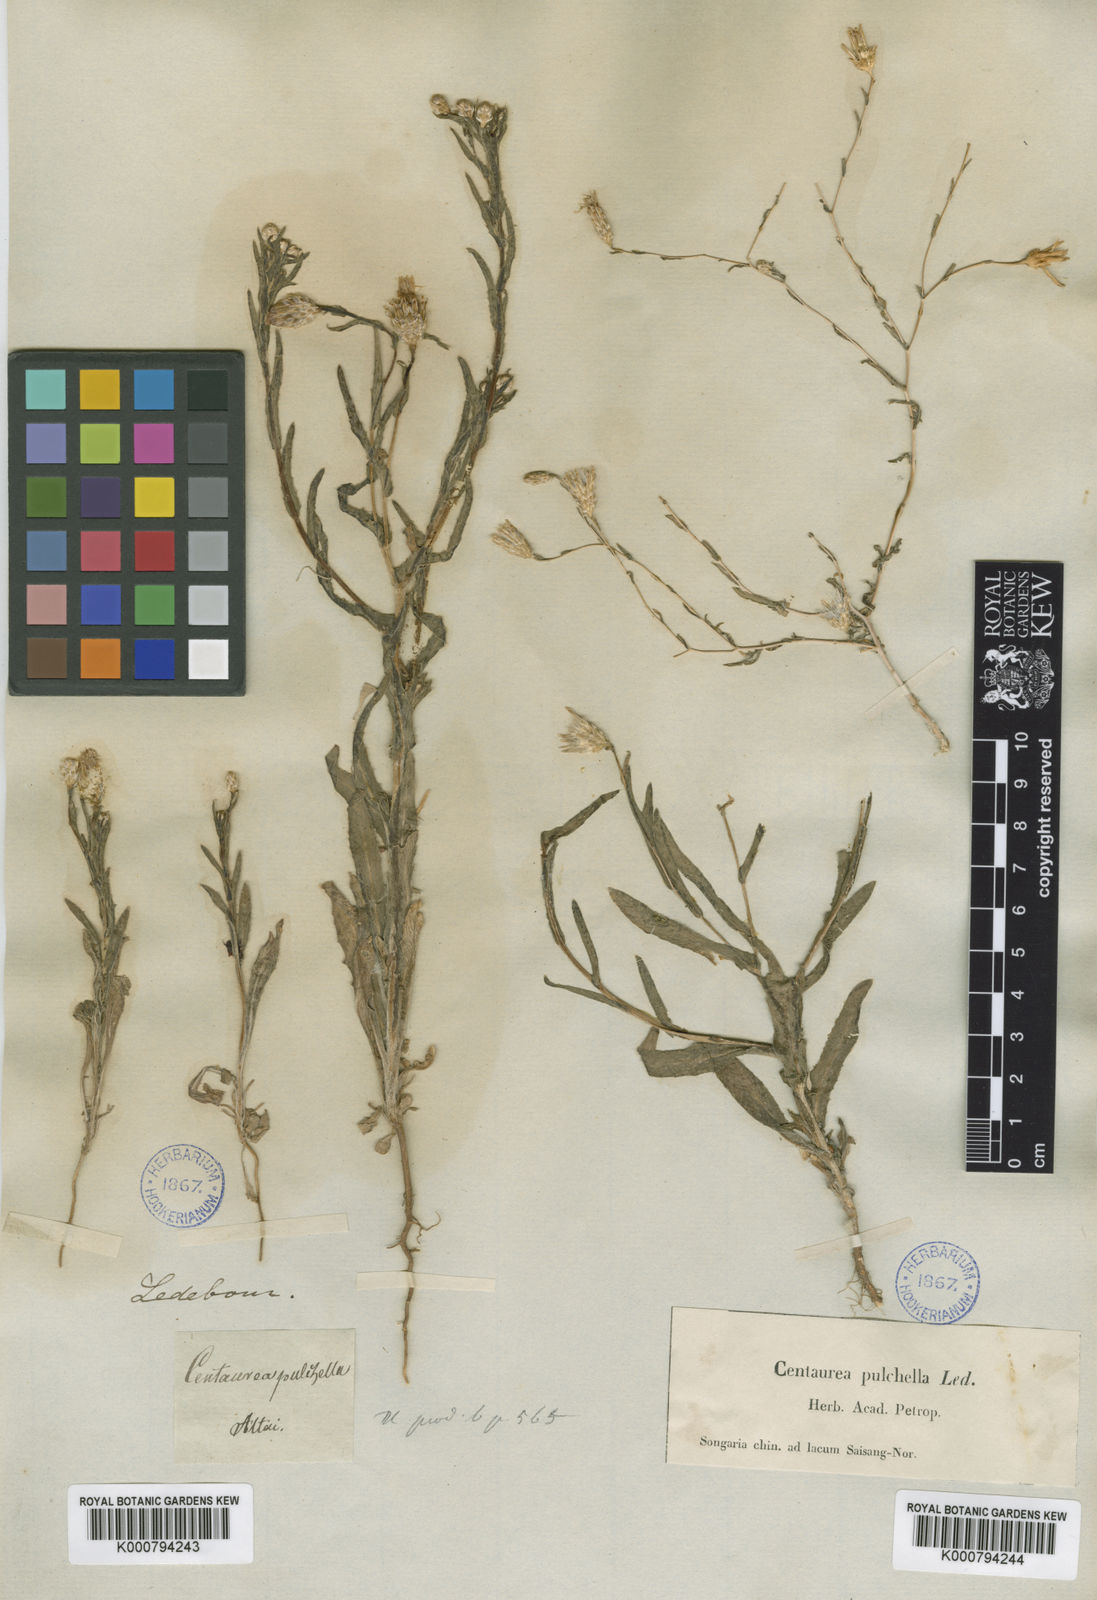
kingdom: Plantae
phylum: Tracheophyta
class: Magnoliopsida
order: Asterales
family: Asteraceae
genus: Centaurea
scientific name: Centaurea pulchella
